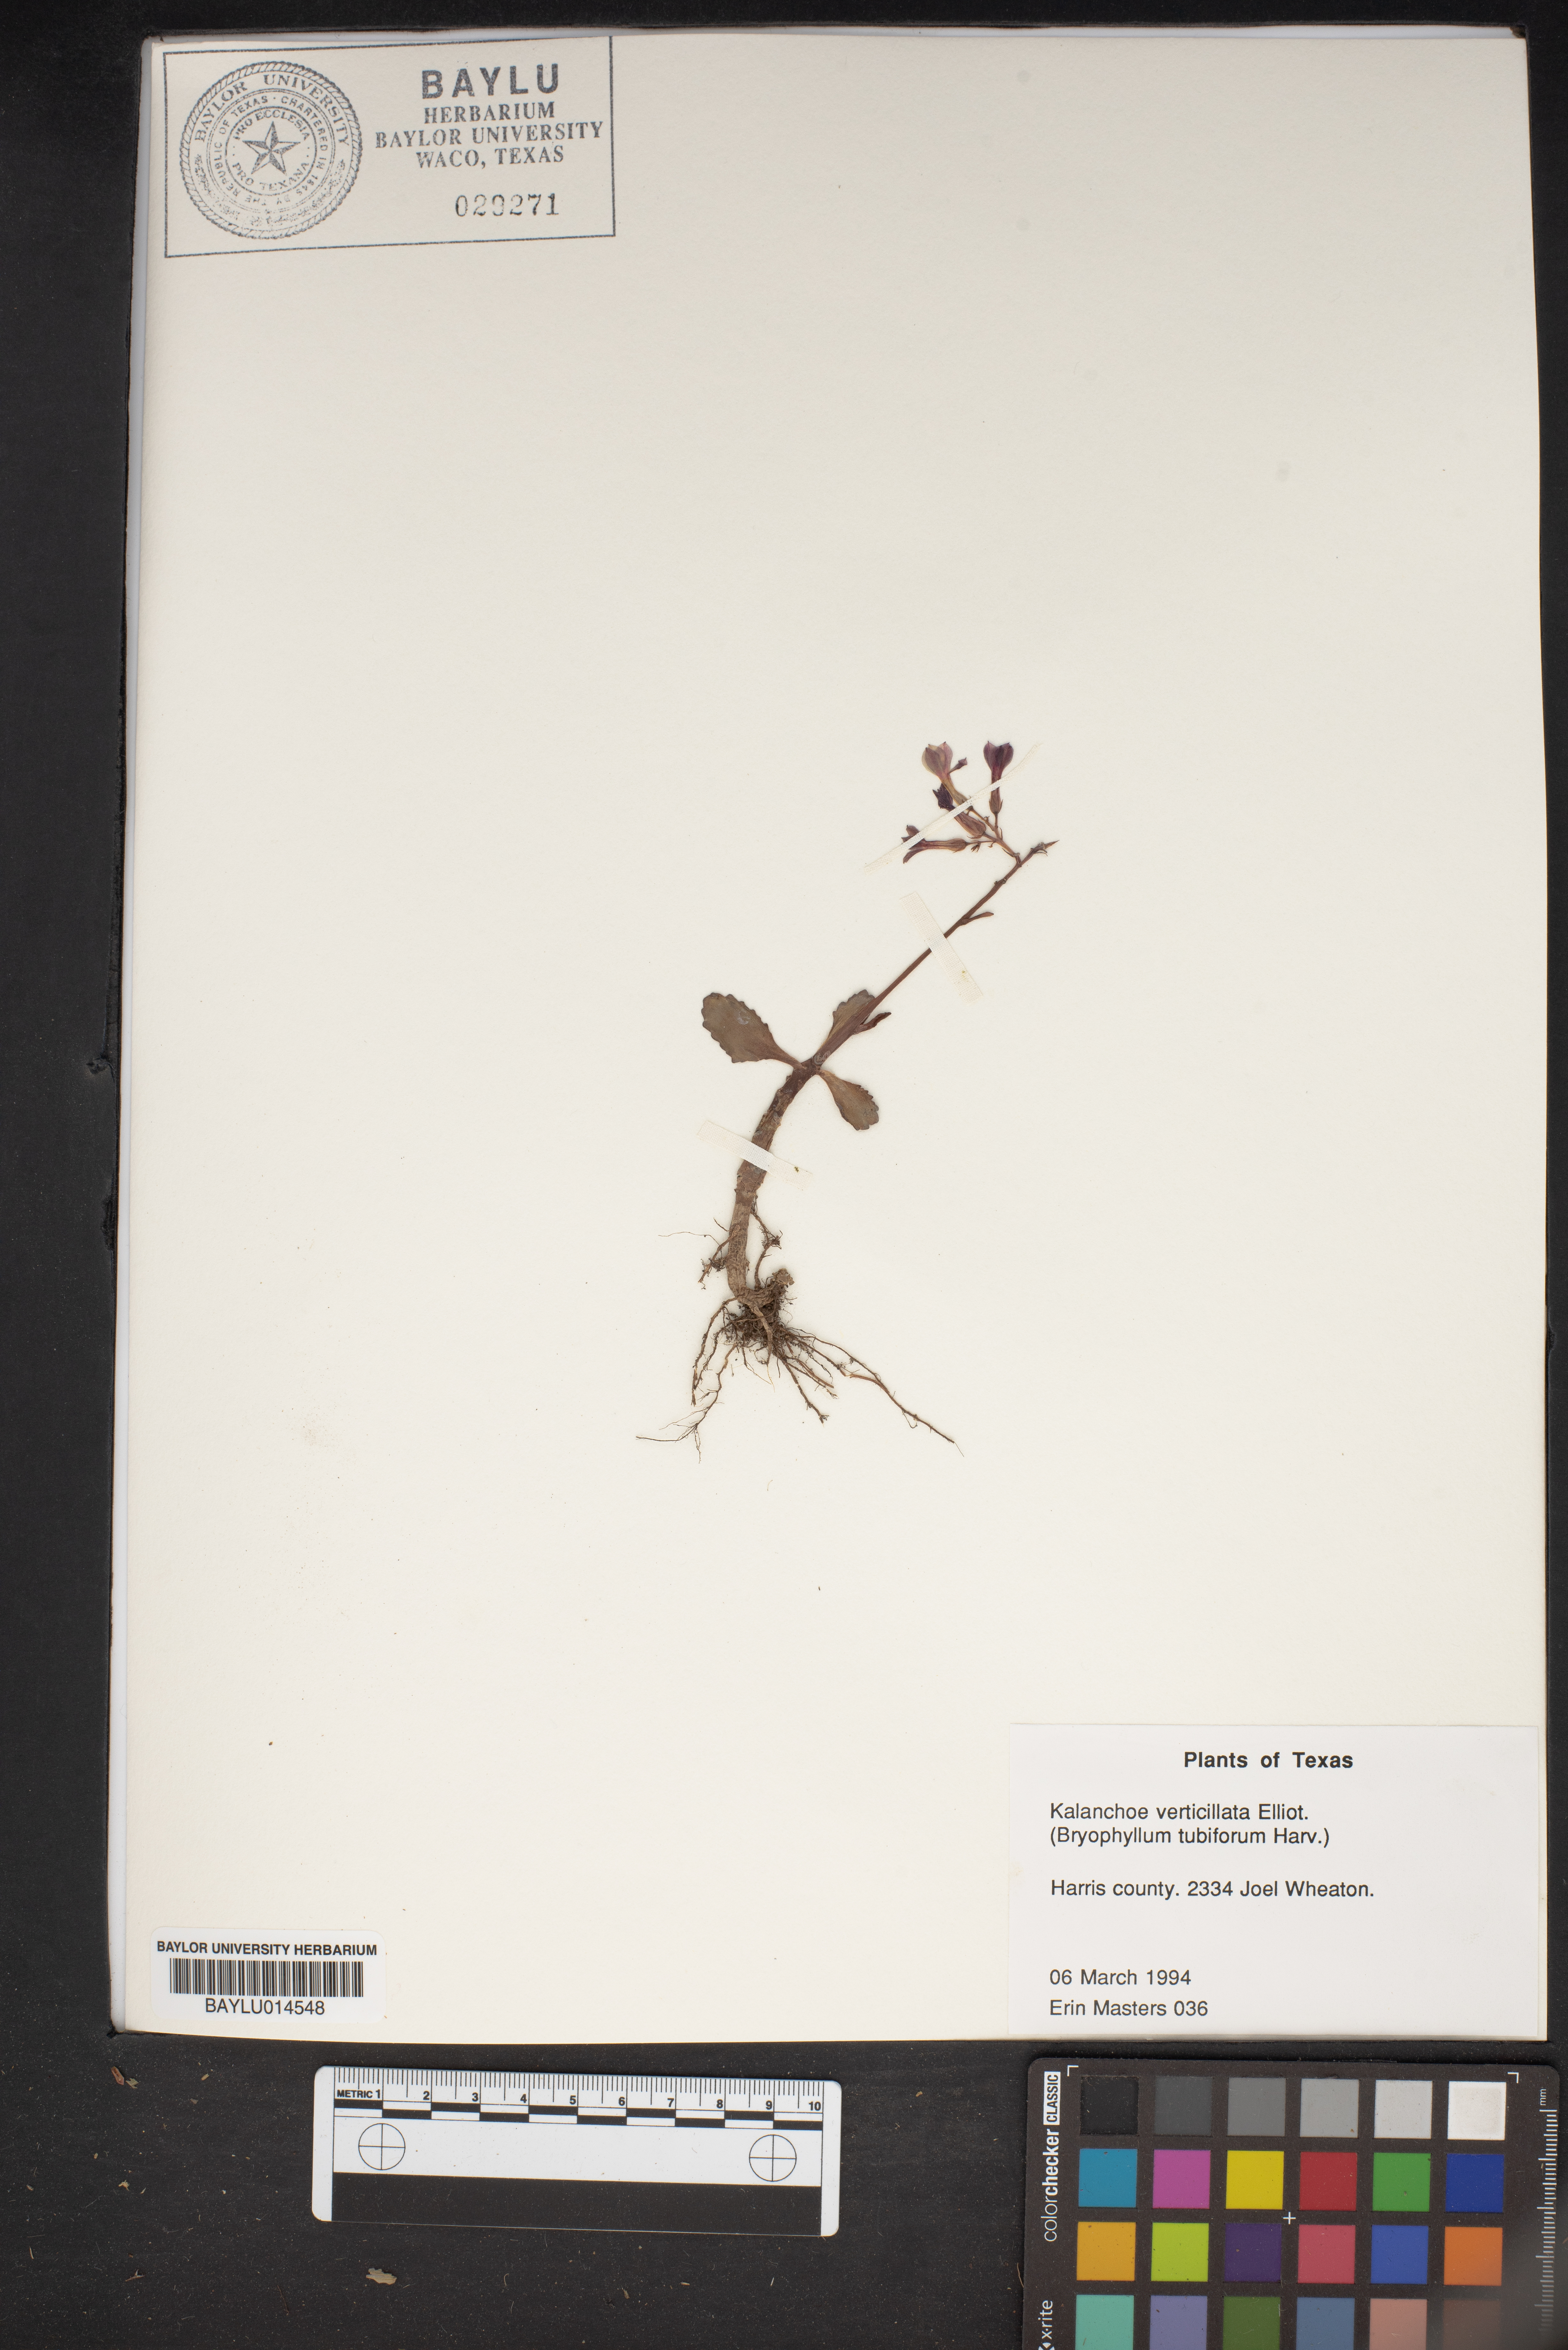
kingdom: Plantae
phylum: Tracheophyta
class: Magnoliopsida
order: Saxifragales
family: Crassulaceae
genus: Kalanchoe
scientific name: Kalanchoe delagoensis
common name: Chandelier plant
